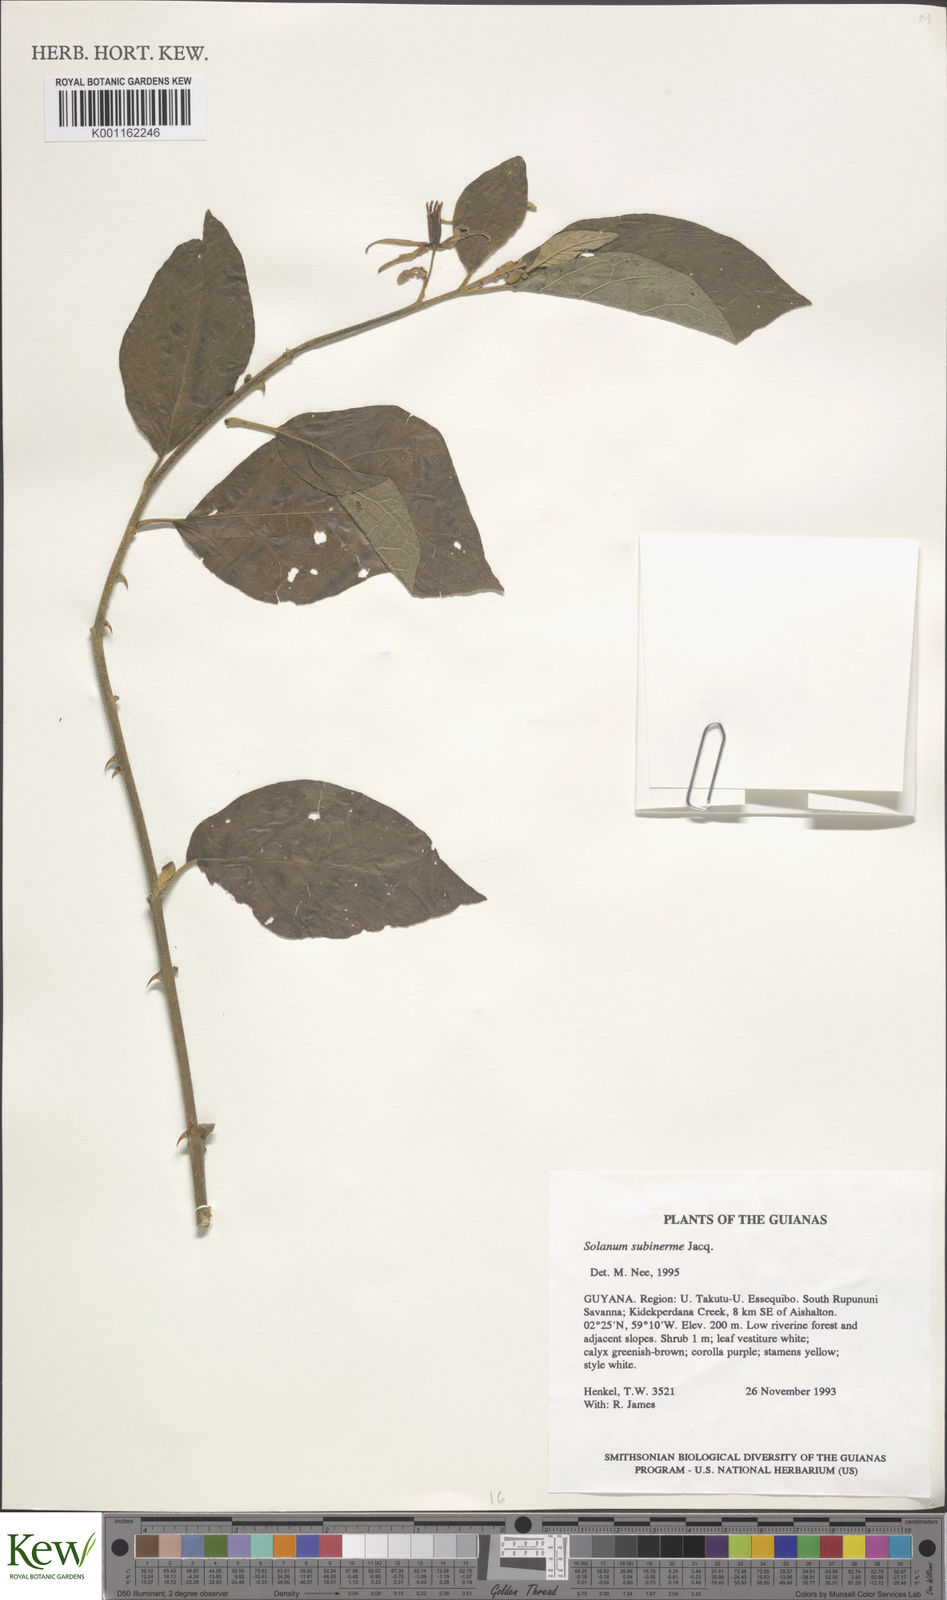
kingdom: Plantae
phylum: Tracheophyta
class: Magnoliopsida
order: Solanales
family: Solanaceae
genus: Solanum
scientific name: Solanum subinerme
